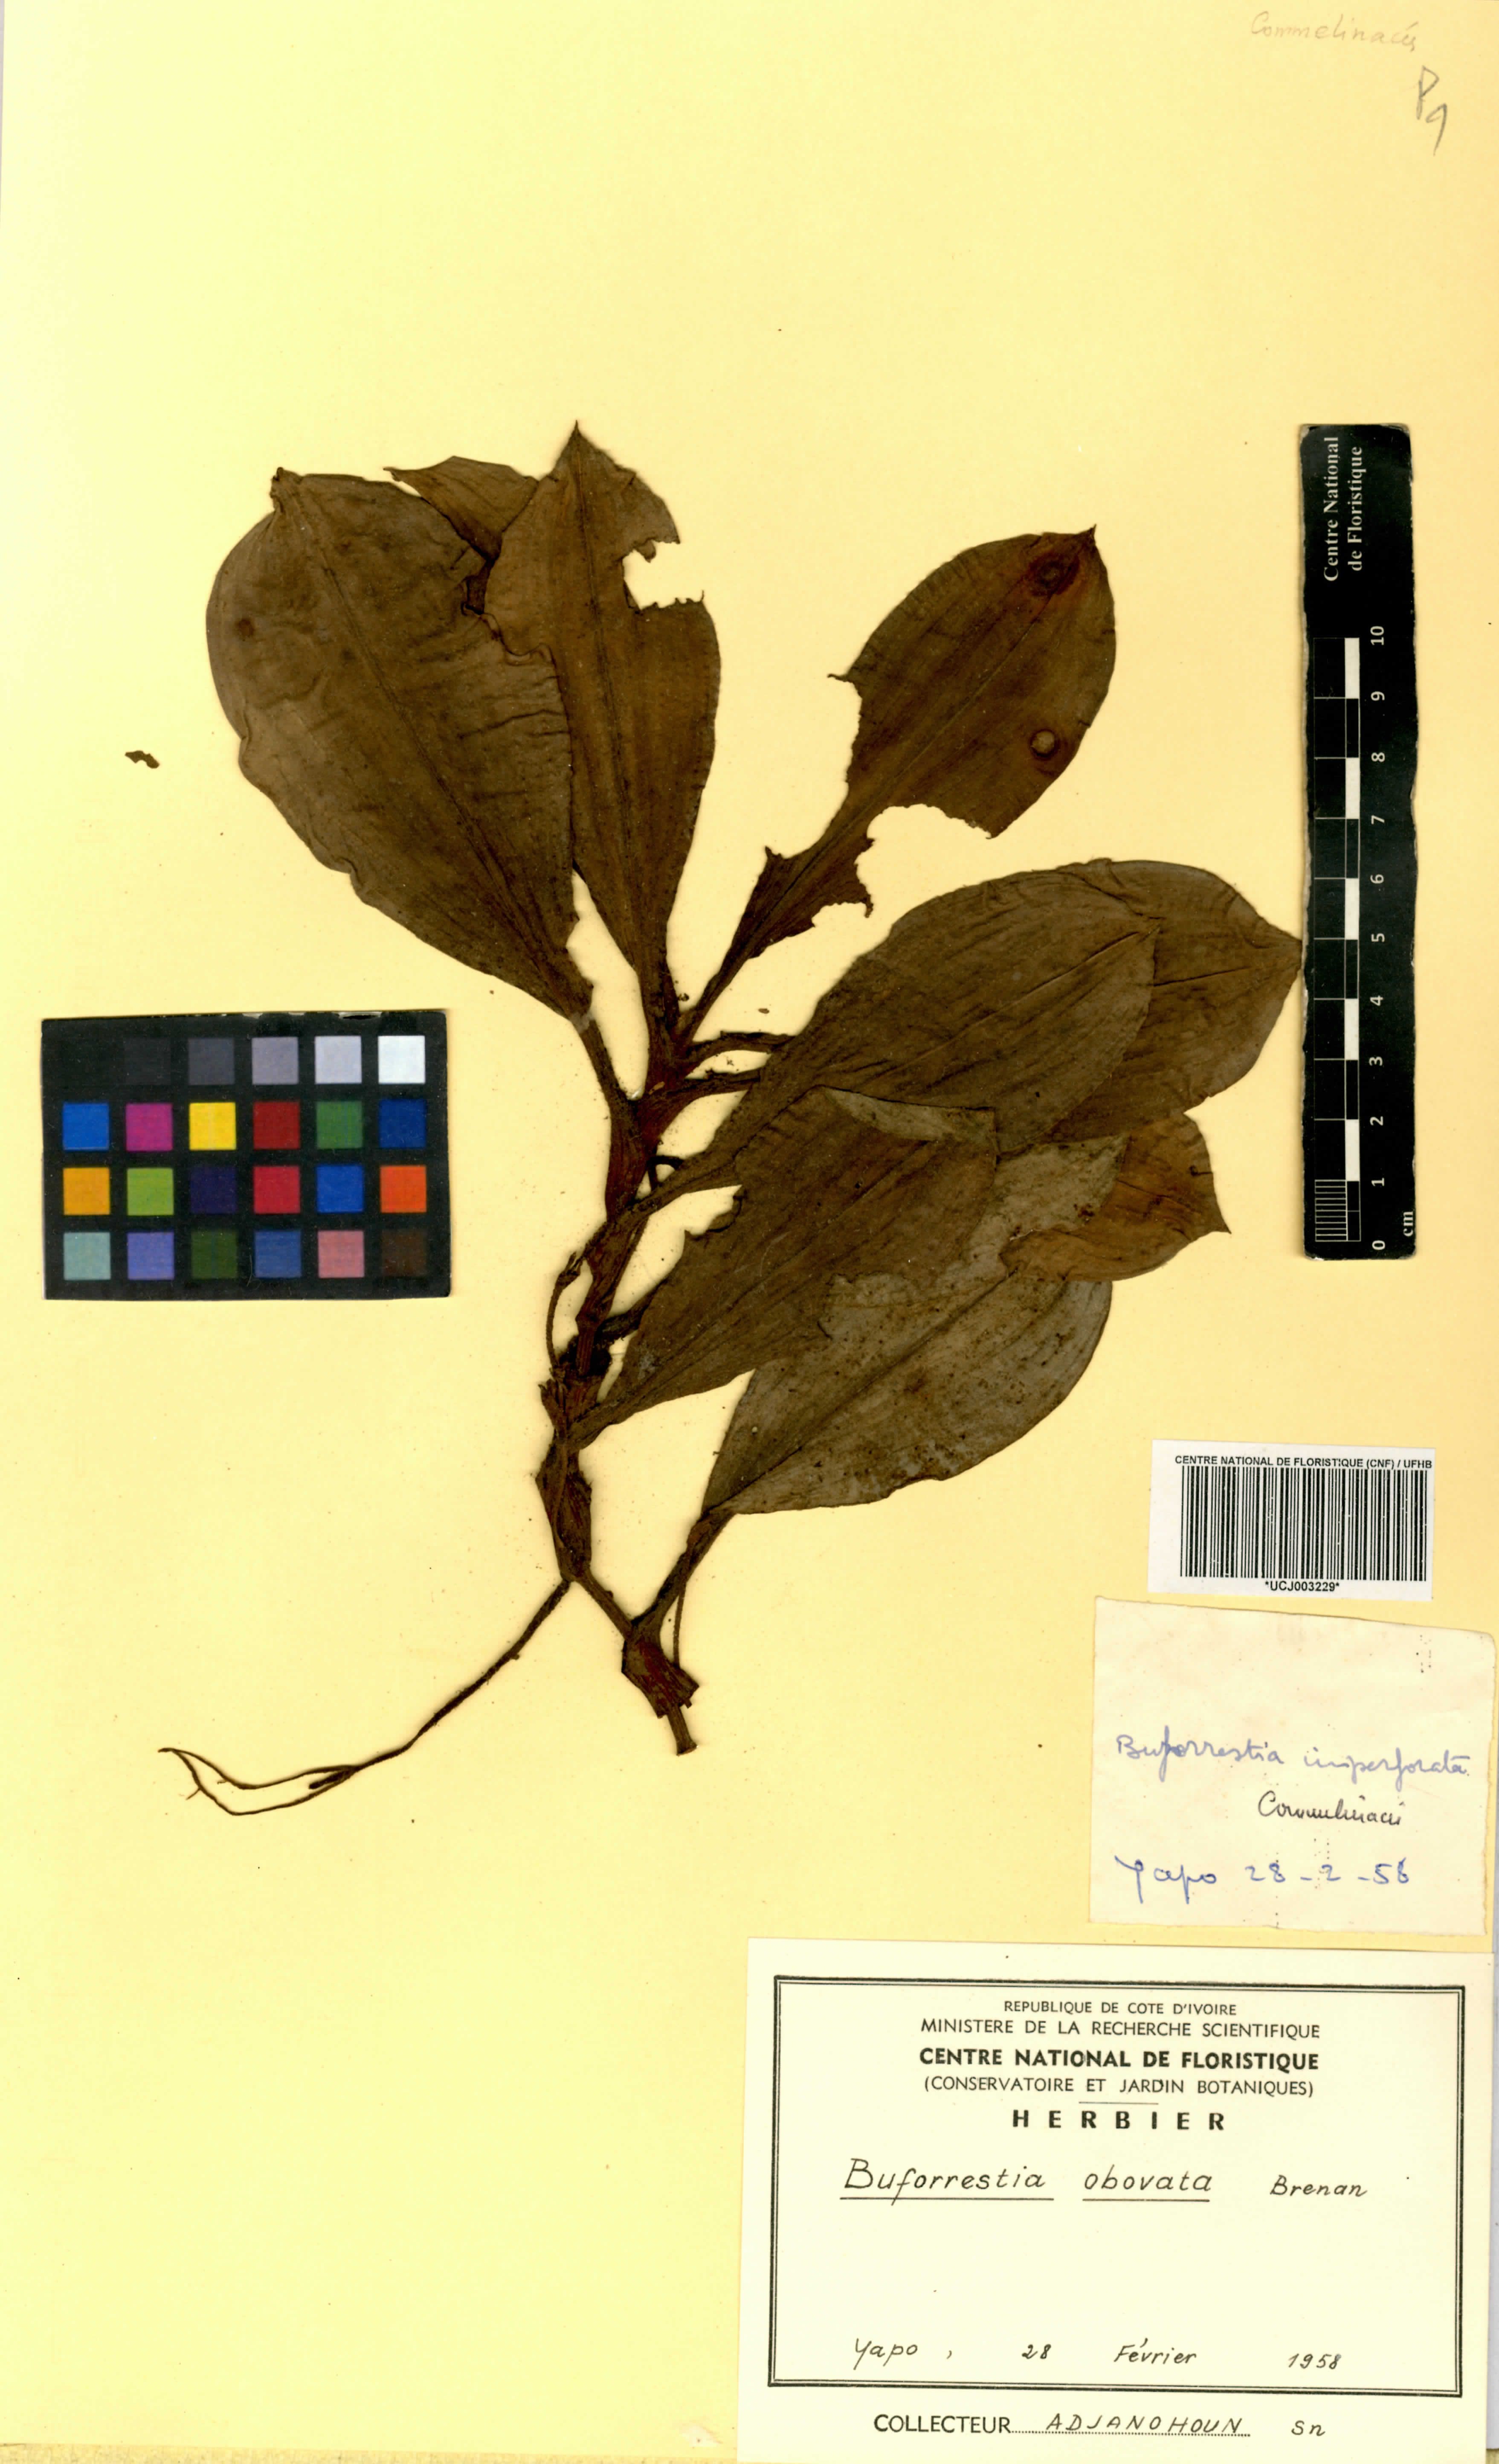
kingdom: Plantae
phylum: Tracheophyta
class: Liliopsida
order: Commelinales
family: Commelinaceae
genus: Buforrestia
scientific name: Buforrestia obovata
